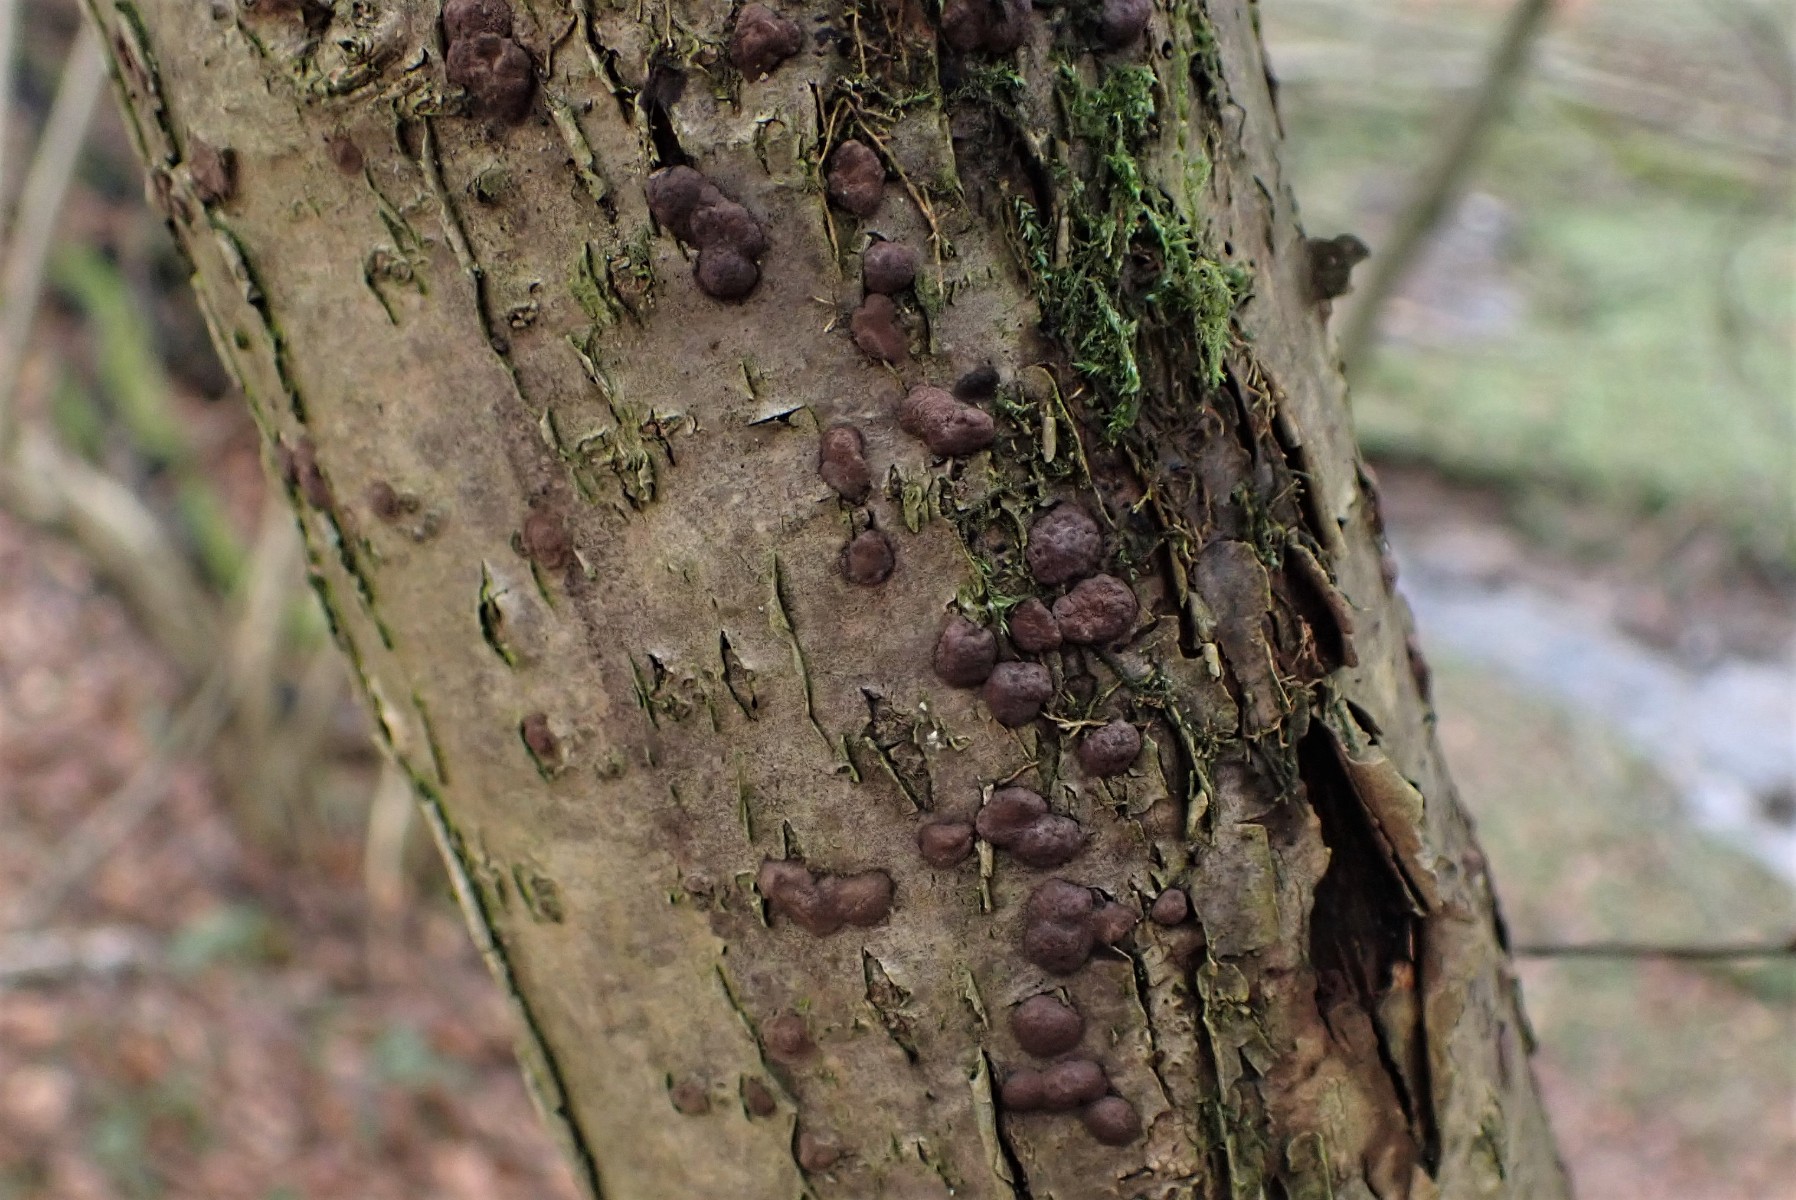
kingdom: Fungi
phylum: Ascomycota
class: Sordariomycetes
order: Xylariales
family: Hypoxylaceae
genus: Hypoxylon
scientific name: Hypoxylon fuscum
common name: kegleformet kulbær
